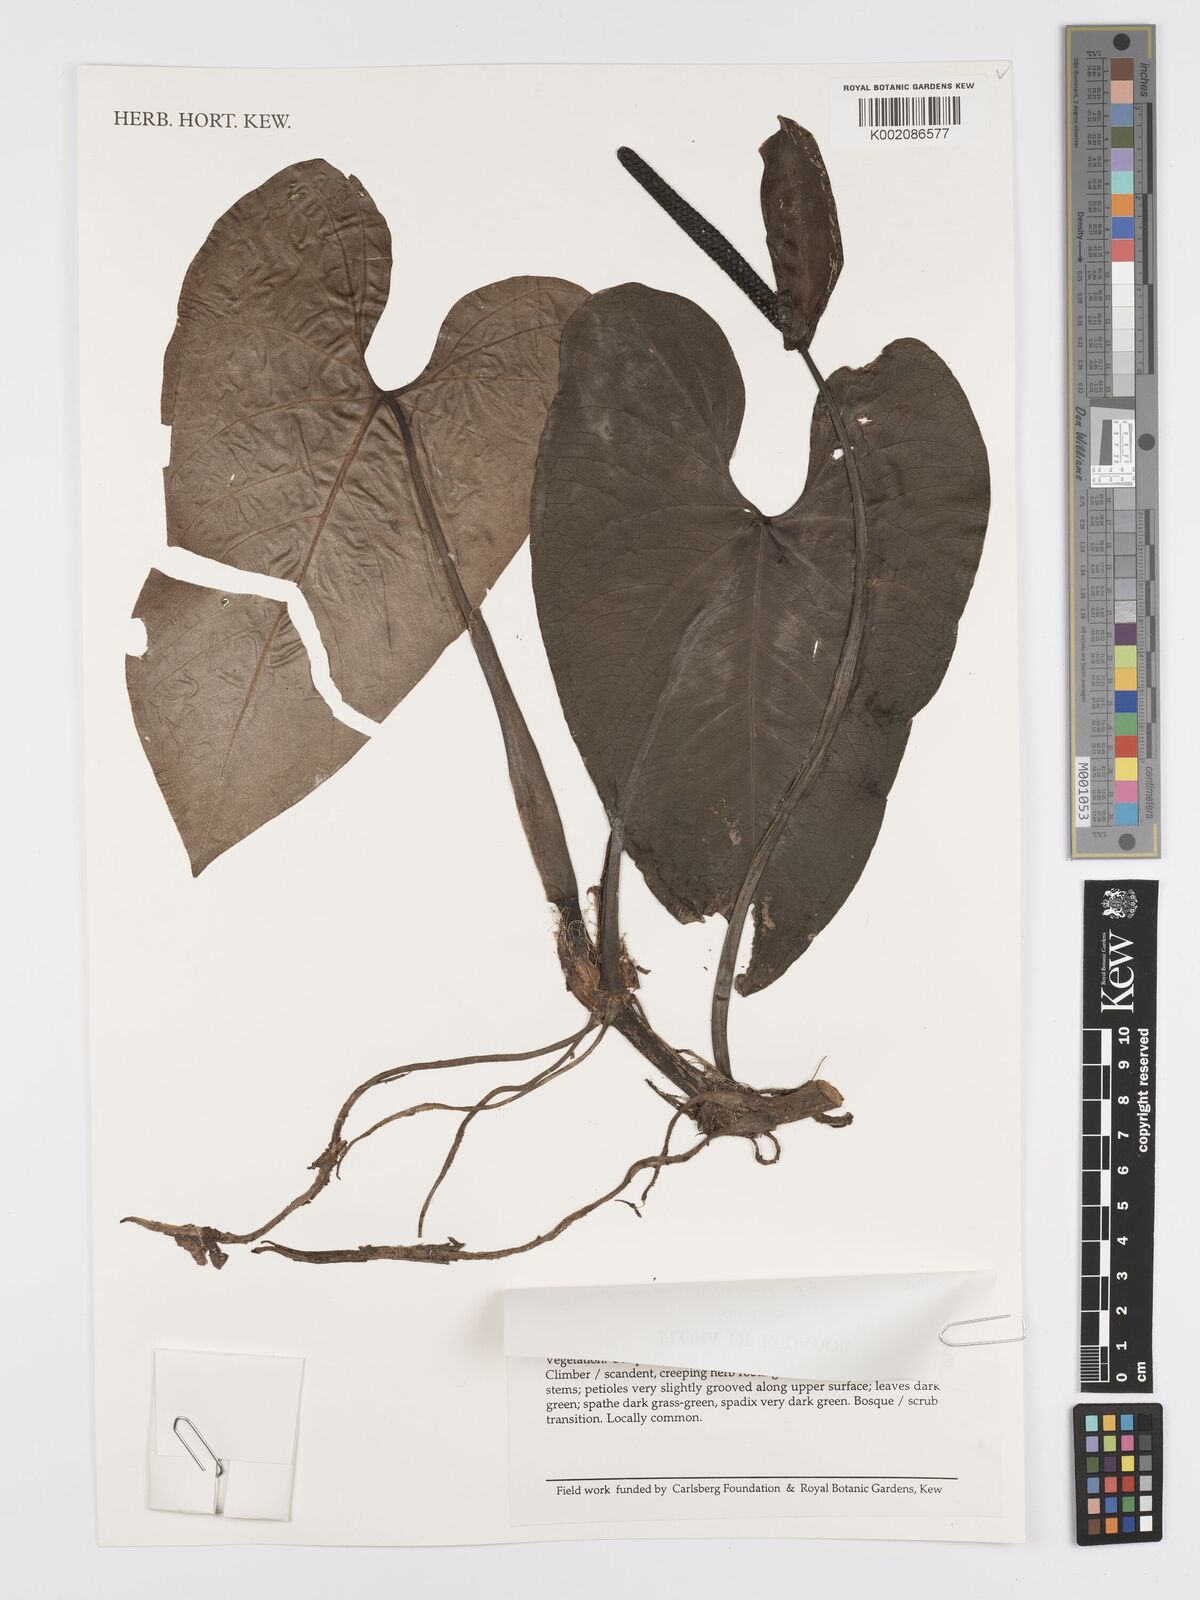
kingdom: Plantae
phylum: Tracheophyta
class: Liliopsida
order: Alismatales
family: Araceae
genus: Anthurium
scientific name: Anthurium nigrescens
